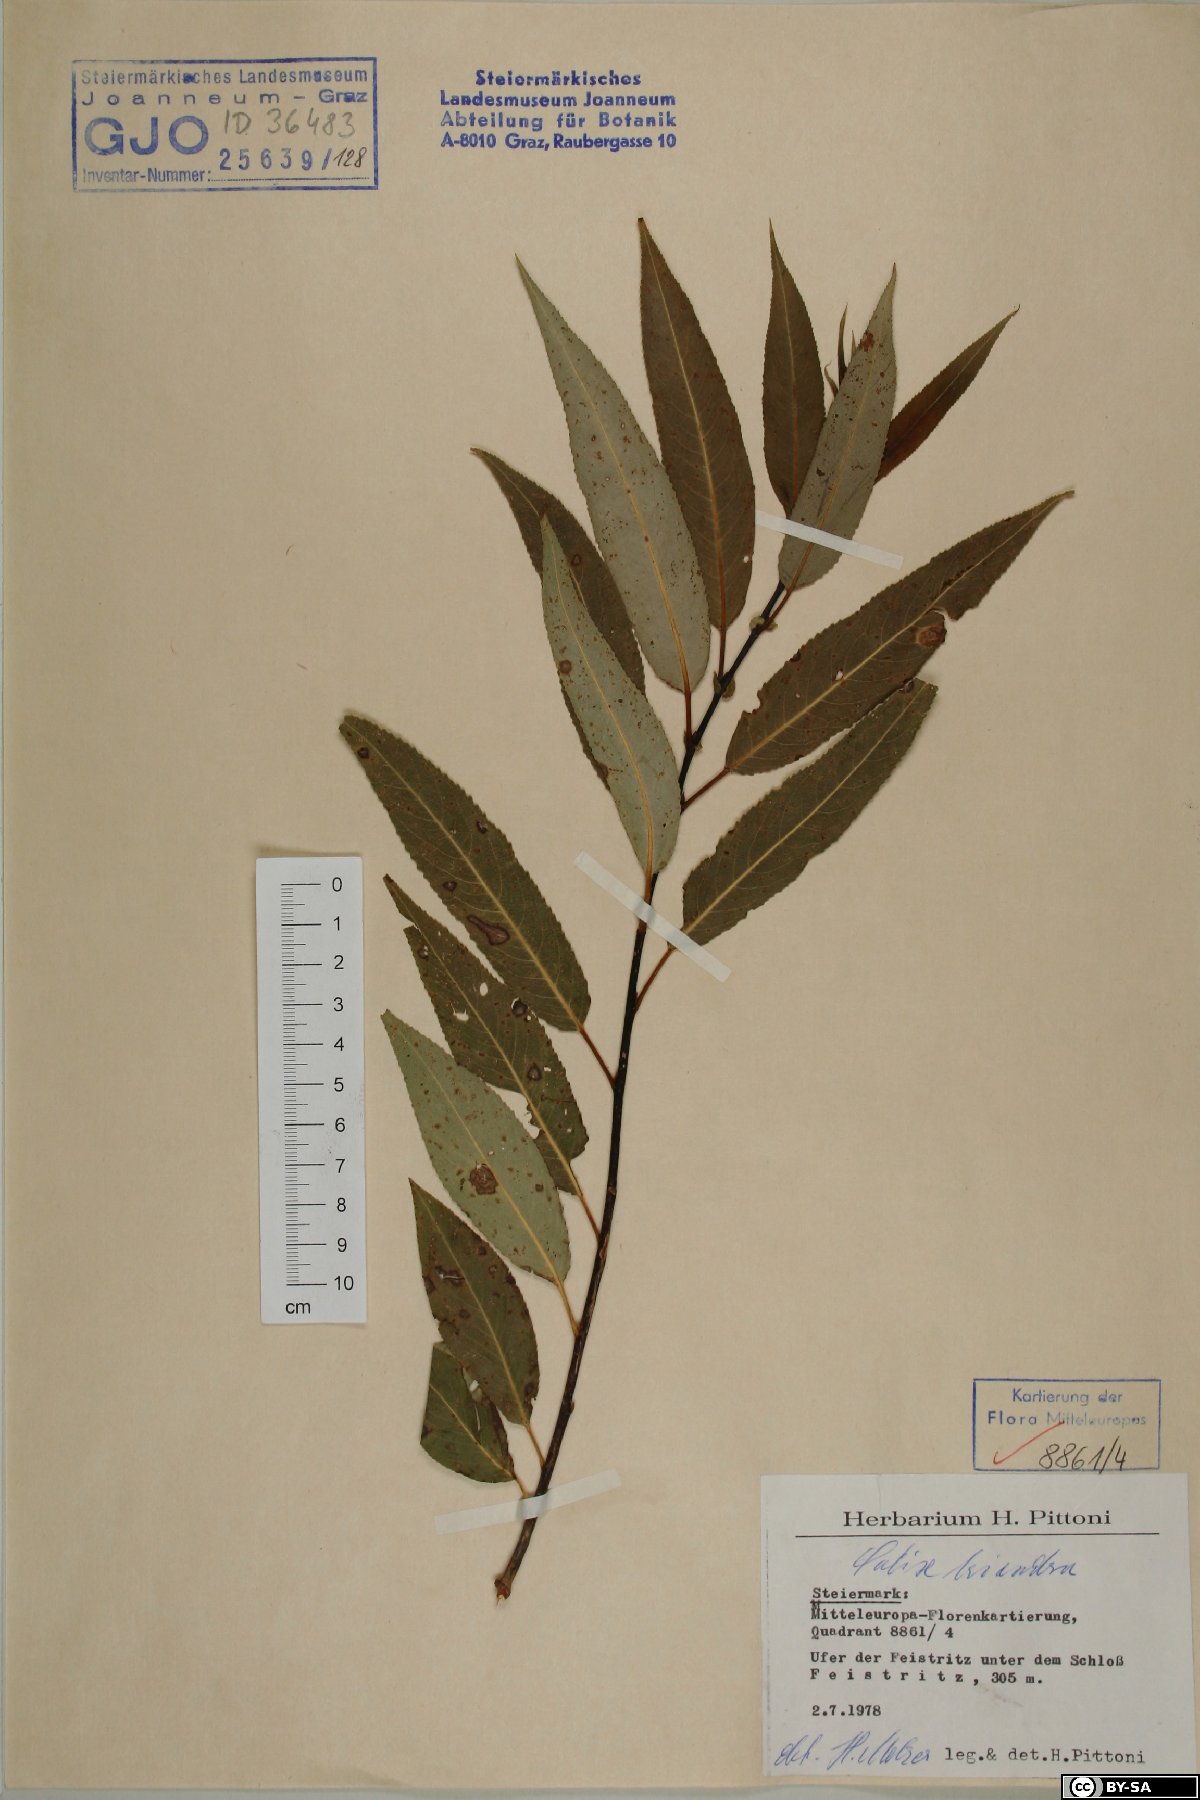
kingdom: Plantae
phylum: Tracheophyta
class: Magnoliopsida
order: Malpighiales
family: Salicaceae
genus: Salix
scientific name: Salix triandra
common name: Almond willow
